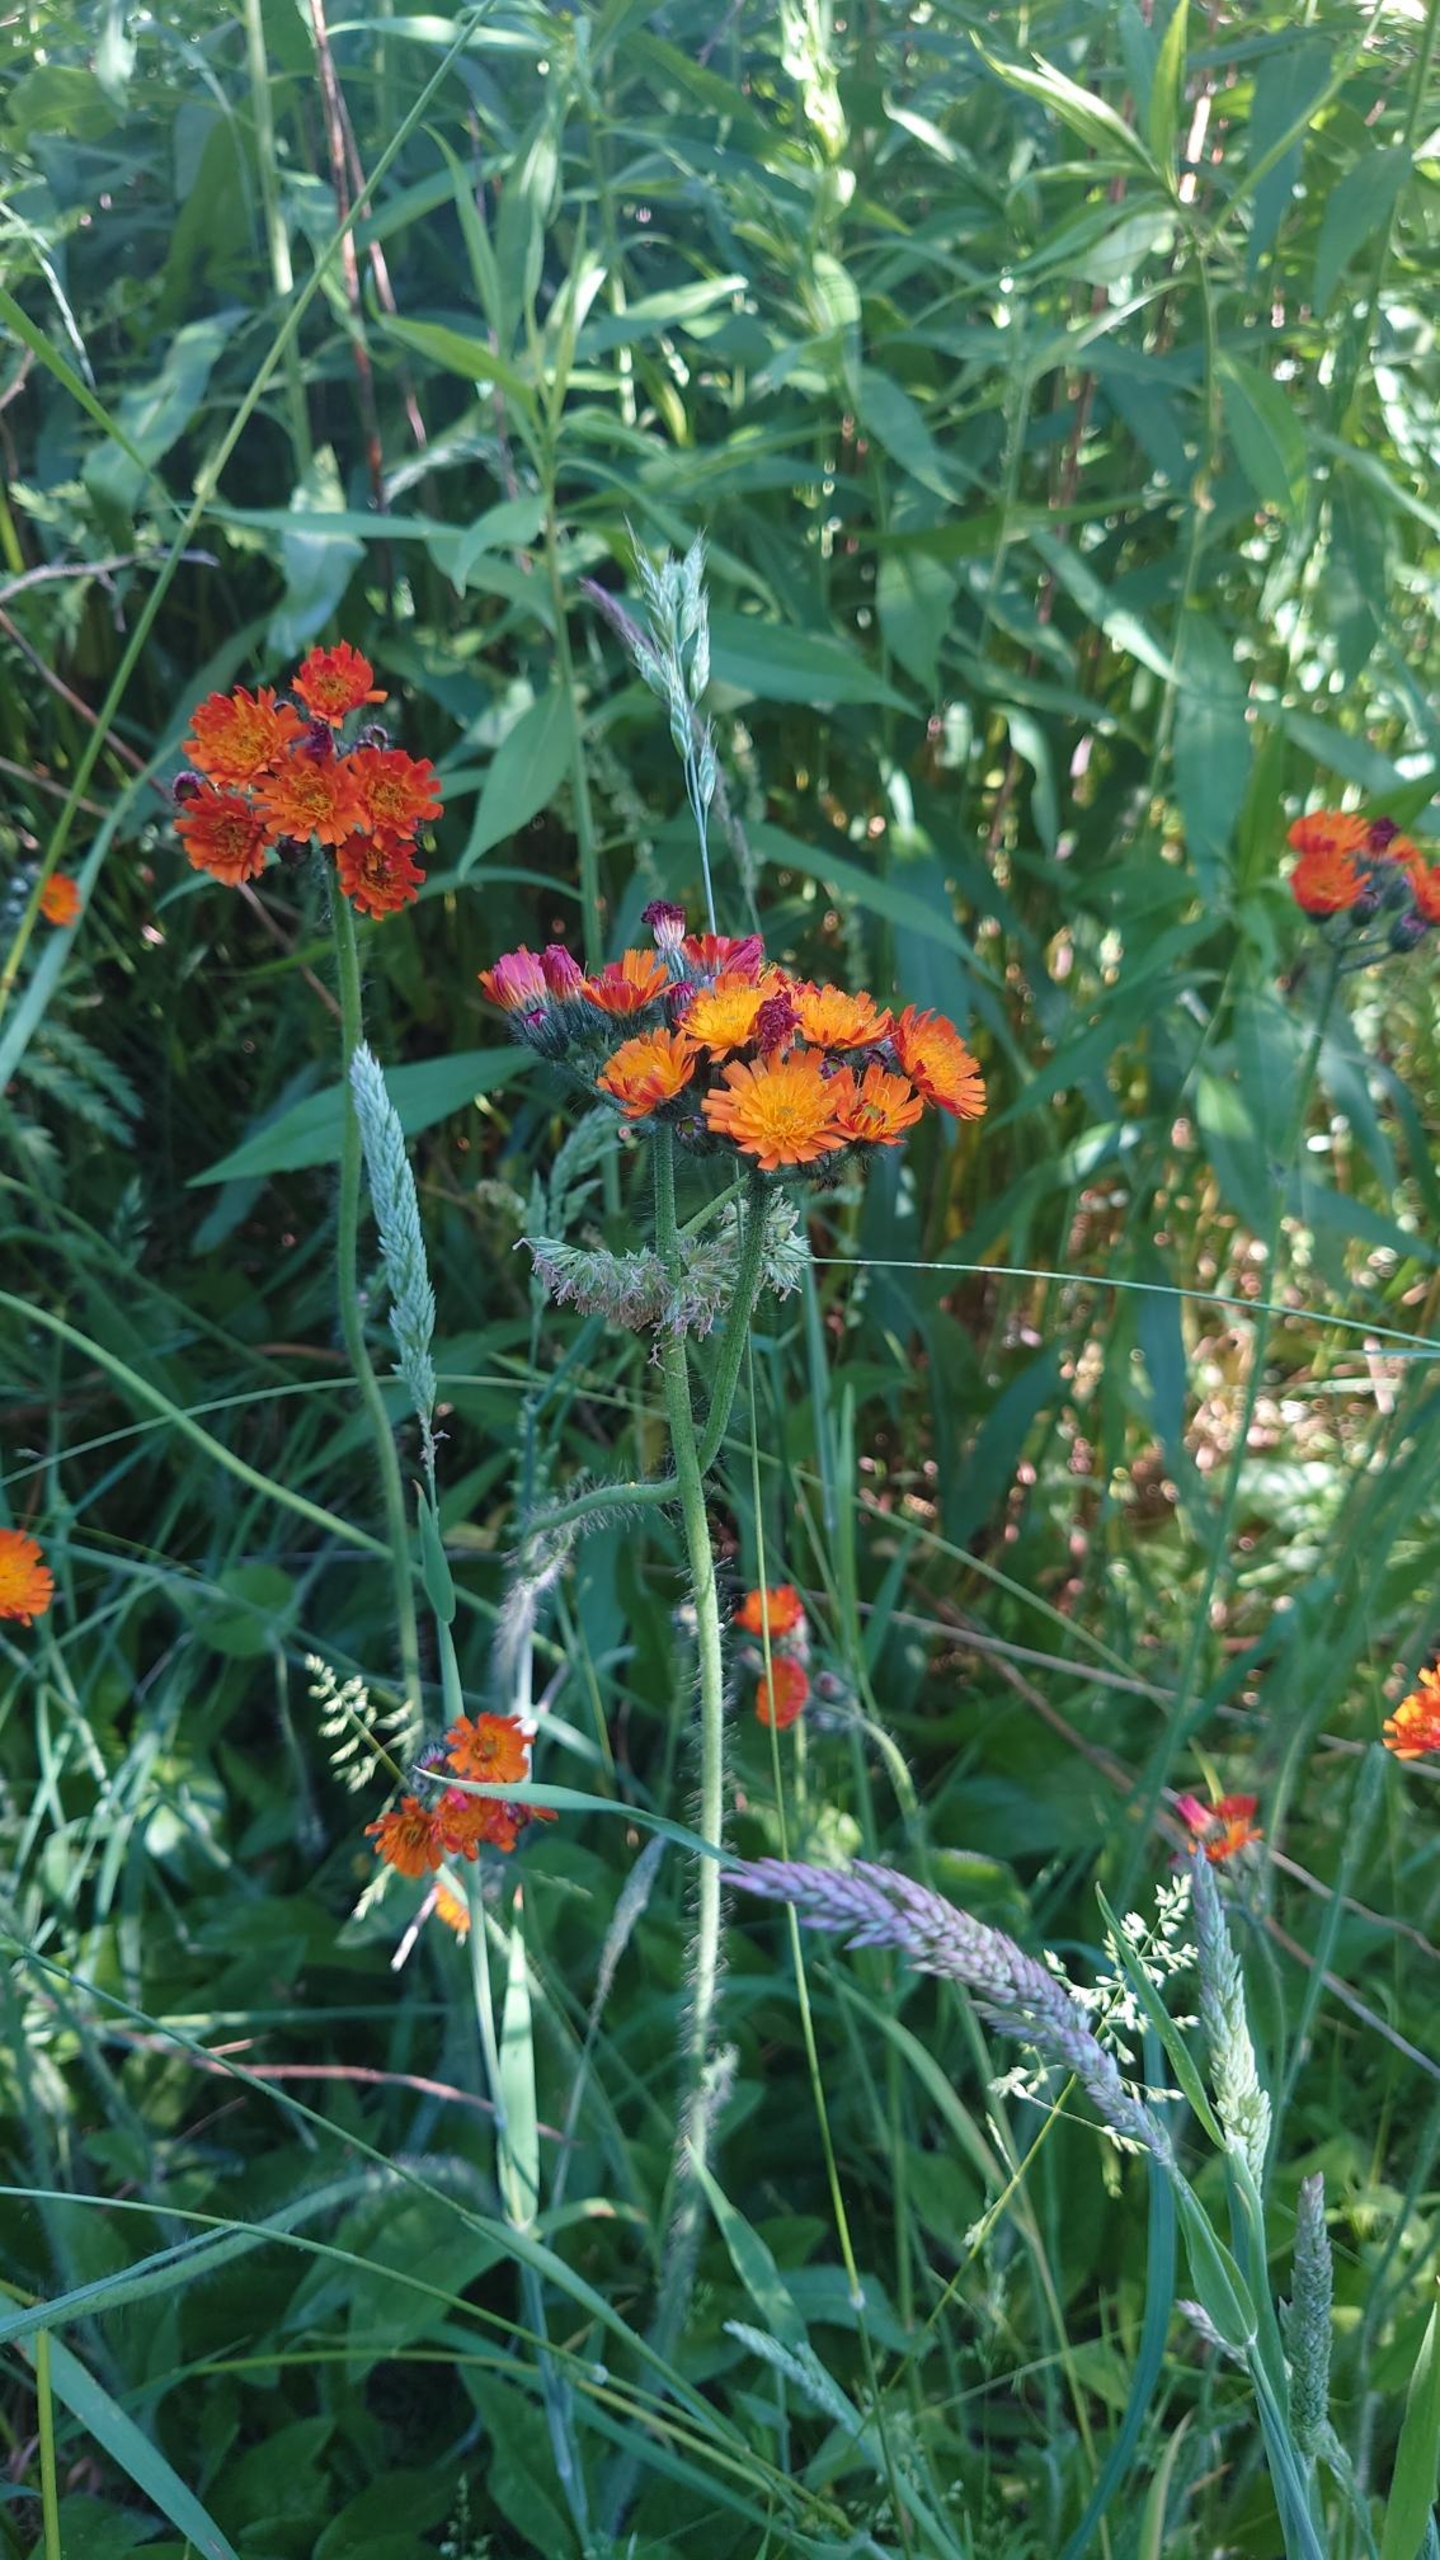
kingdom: Plantae
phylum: Tracheophyta
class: Magnoliopsida
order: Asterales
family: Asteraceae
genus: Pilosella
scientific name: Pilosella aurantiaca
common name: Pomerans-høgeurt
